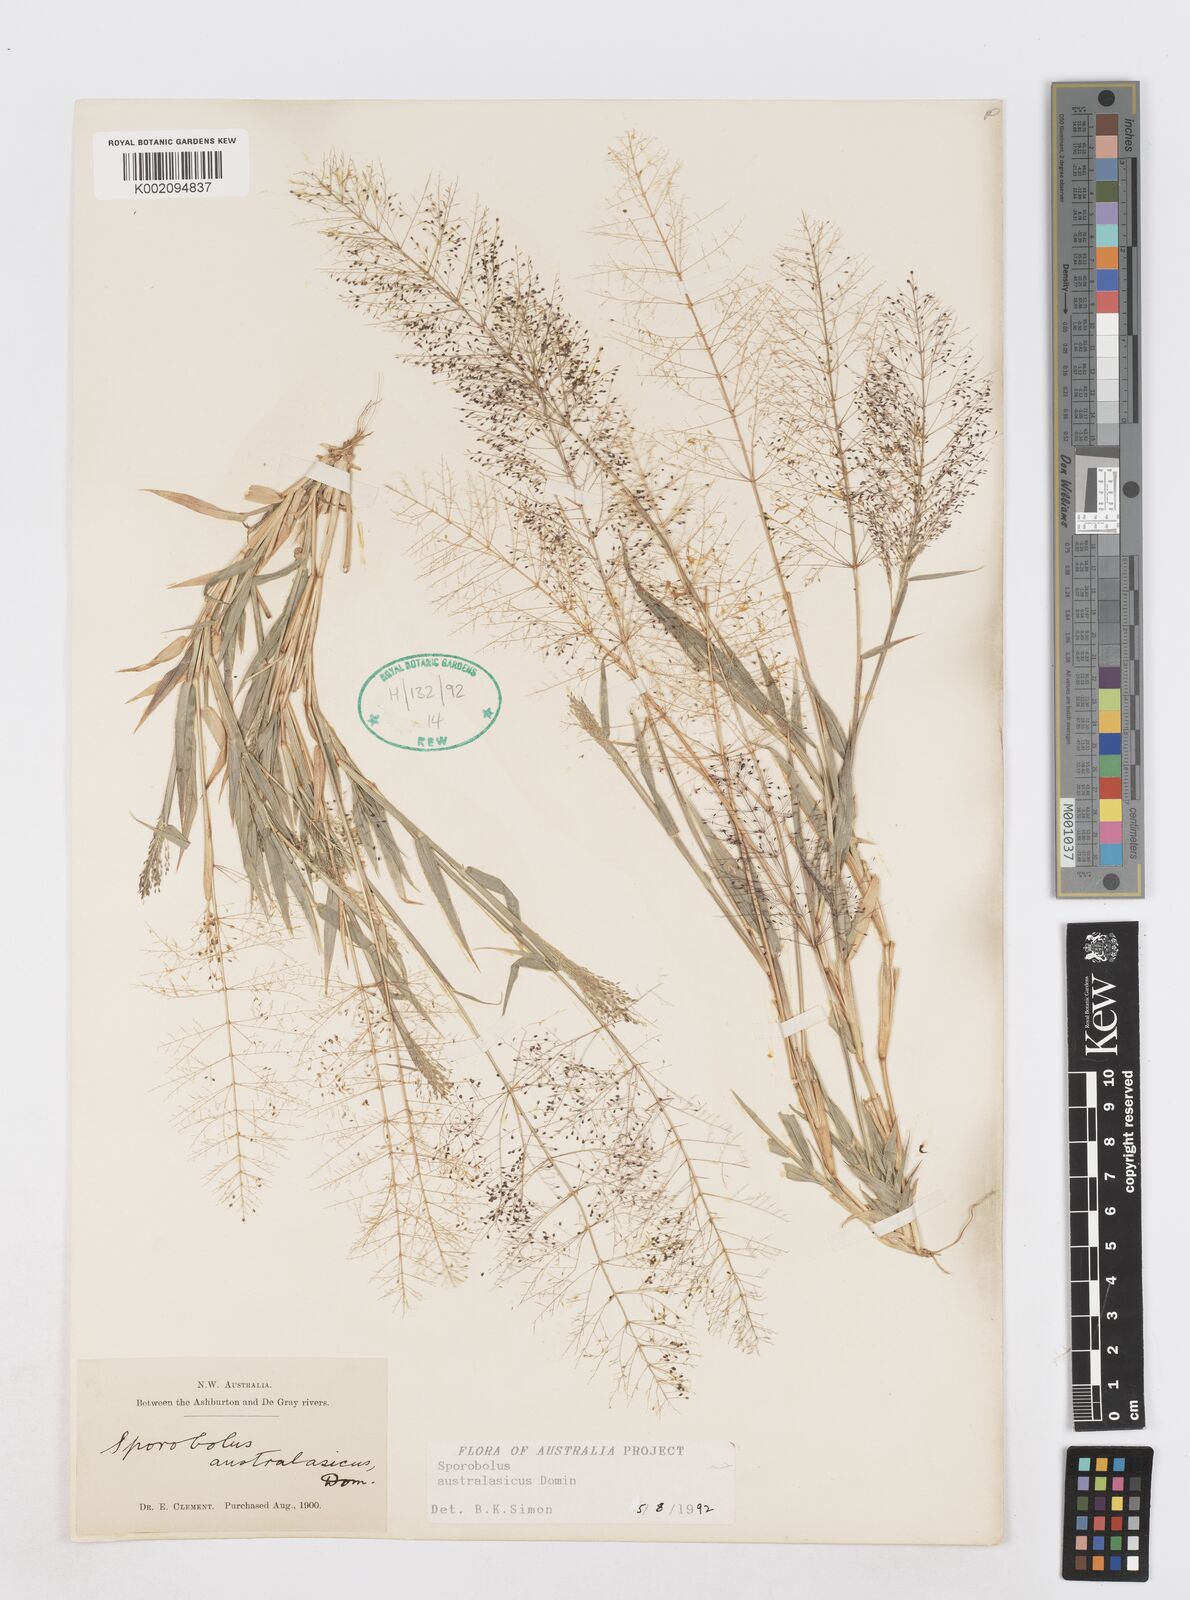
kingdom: Plantae
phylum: Tracheophyta
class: Liliopsida
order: Poales
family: Poaceae
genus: Sporobolus
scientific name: Sporobolus australasicus
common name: Australian dropseed
